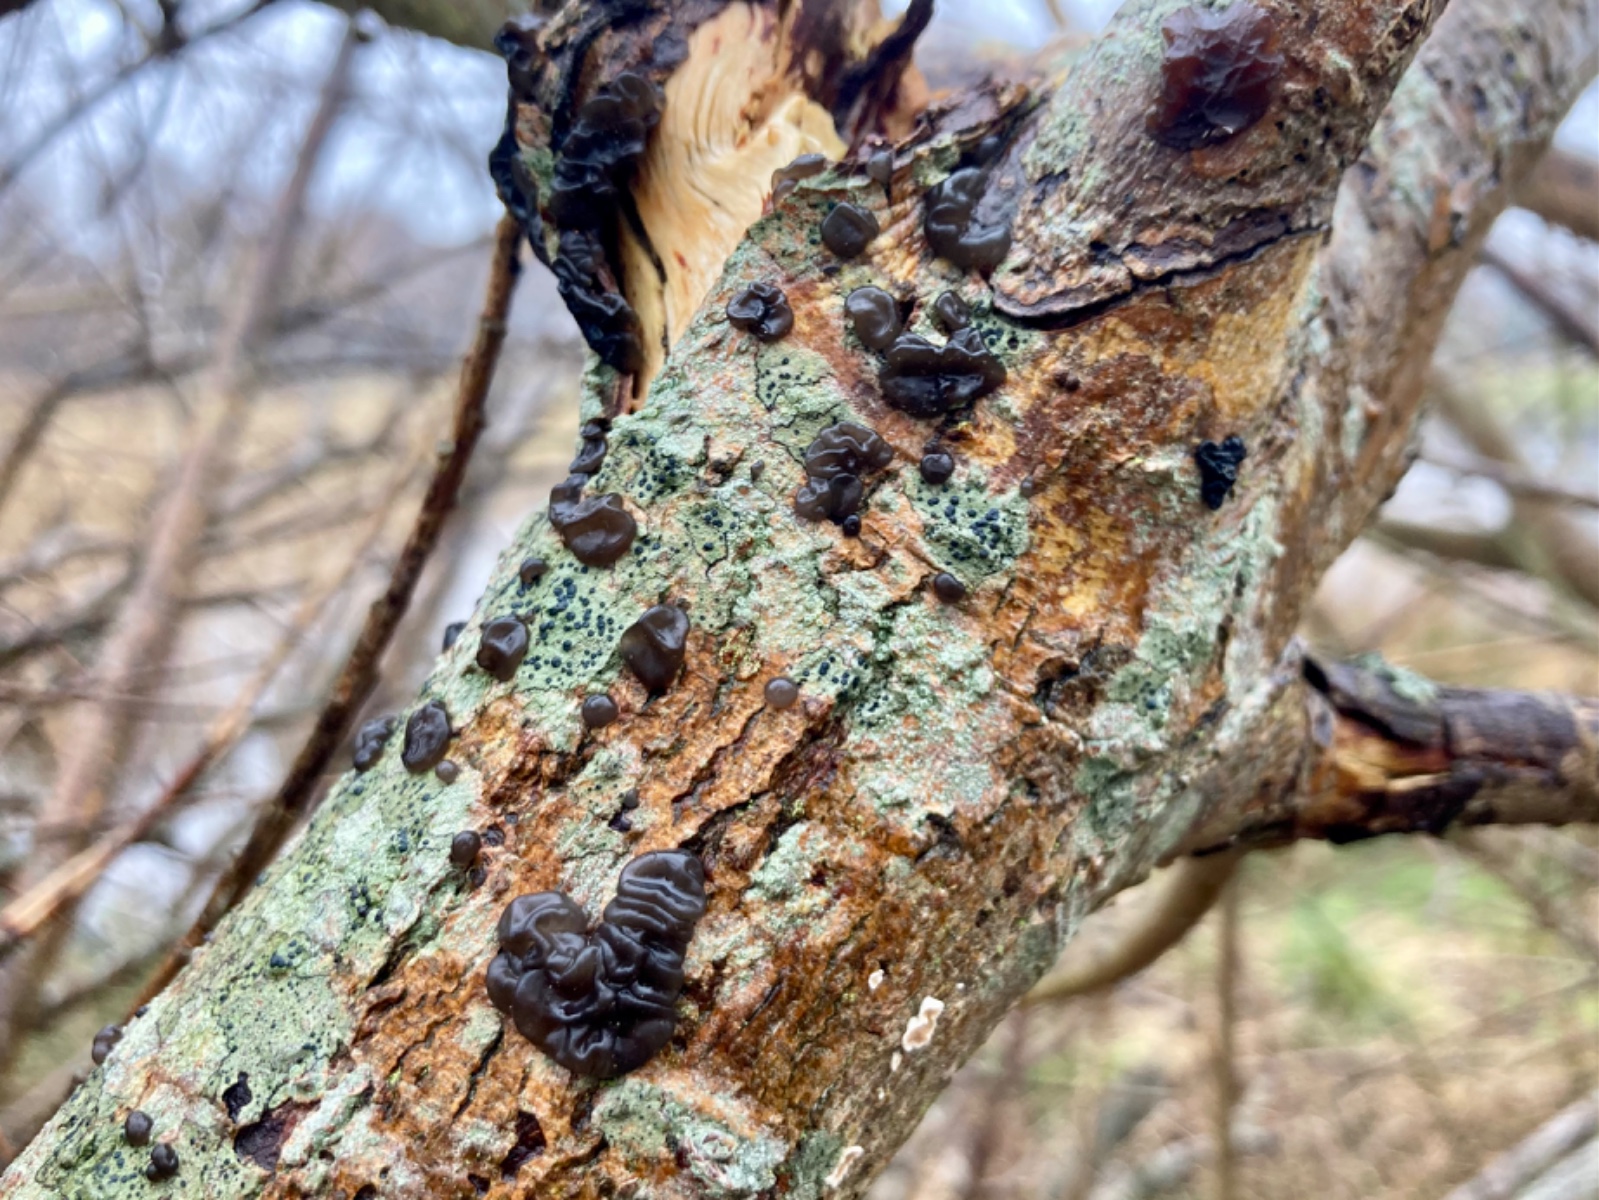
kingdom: Fungi
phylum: Basidiomycota
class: Agaricomycetes
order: Auriculariales
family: Auriculariaceae
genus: Exidia
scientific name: Exidia nigricans
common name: almindelig bævretop
